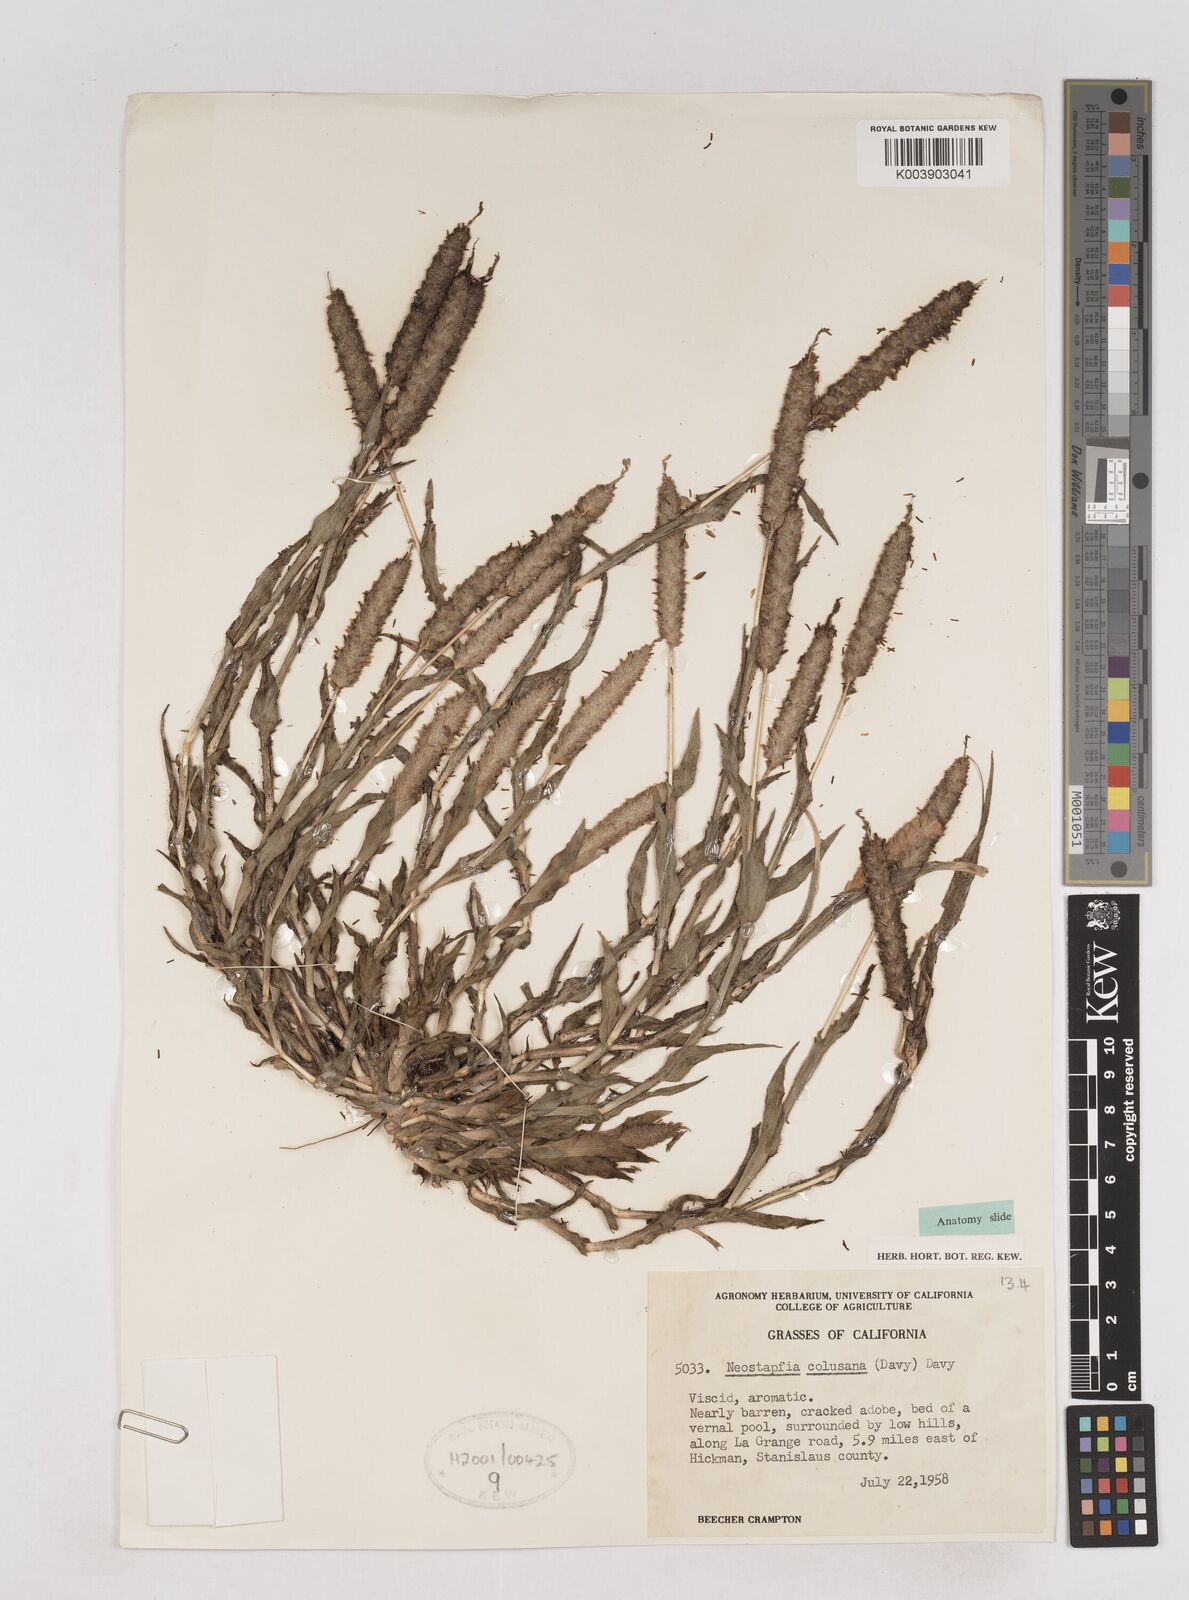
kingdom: Plantae
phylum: Tracheophyta
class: Liliopsida
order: Poales
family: Poaceae
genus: Neostapfia
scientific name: Neostapfia colusana
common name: Colusa grass
